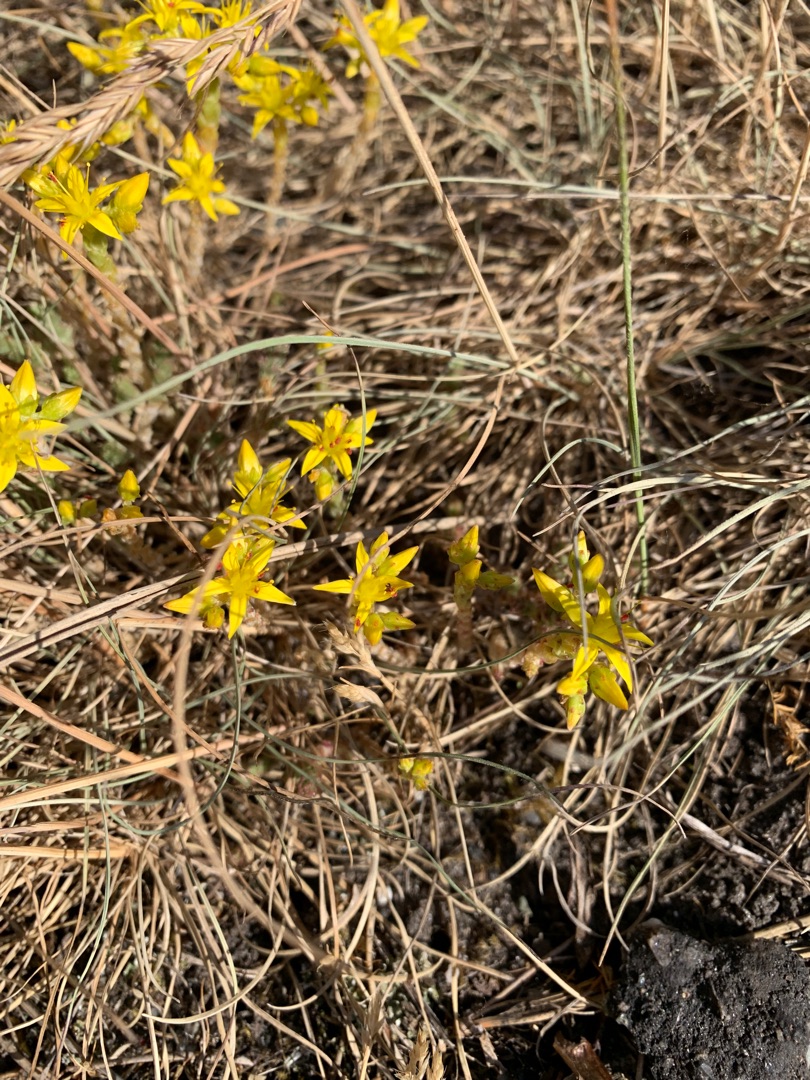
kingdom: Plantae
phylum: Tracheophyta
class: Magnoliopsida
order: Saxifragales
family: Crassulaceae
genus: Sedum
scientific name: Sedum acre
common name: Bidende stenurt
